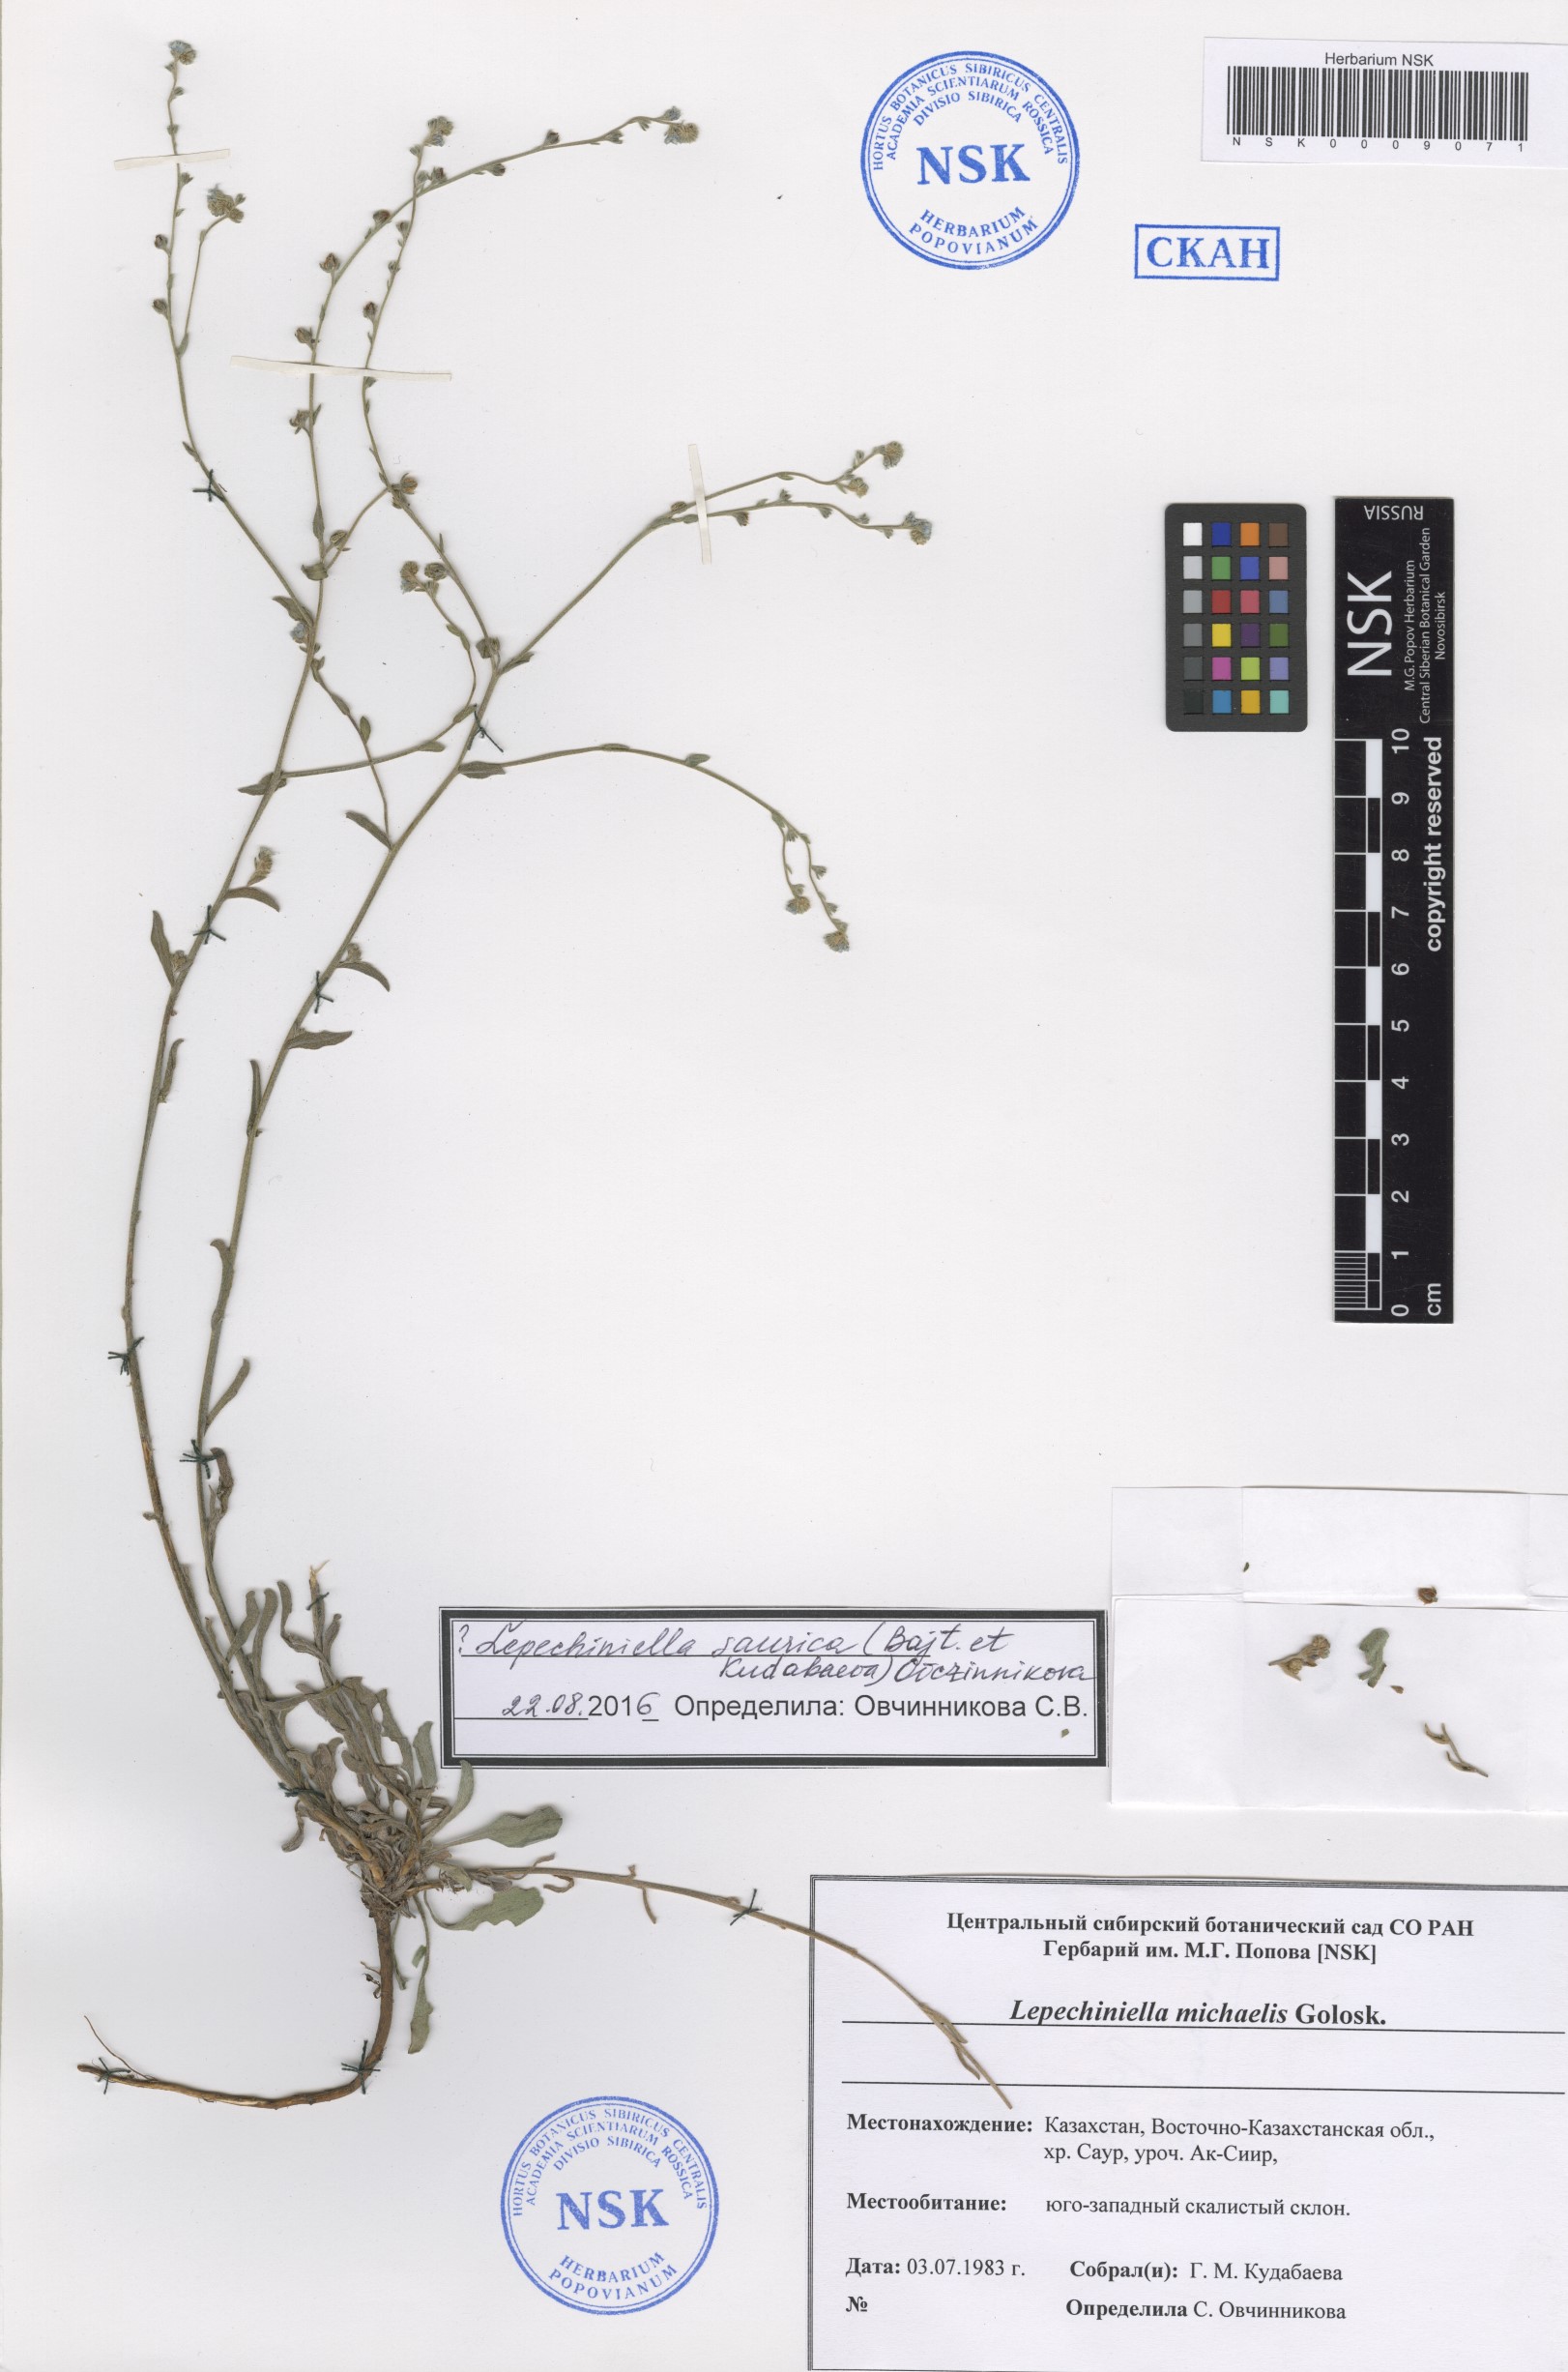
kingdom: Plantae
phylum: Tracheophyta
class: Magnoliopsida
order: Boraginales
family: Boraginaceae
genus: Lepechiniella
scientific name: Lepechiniella michaelis
